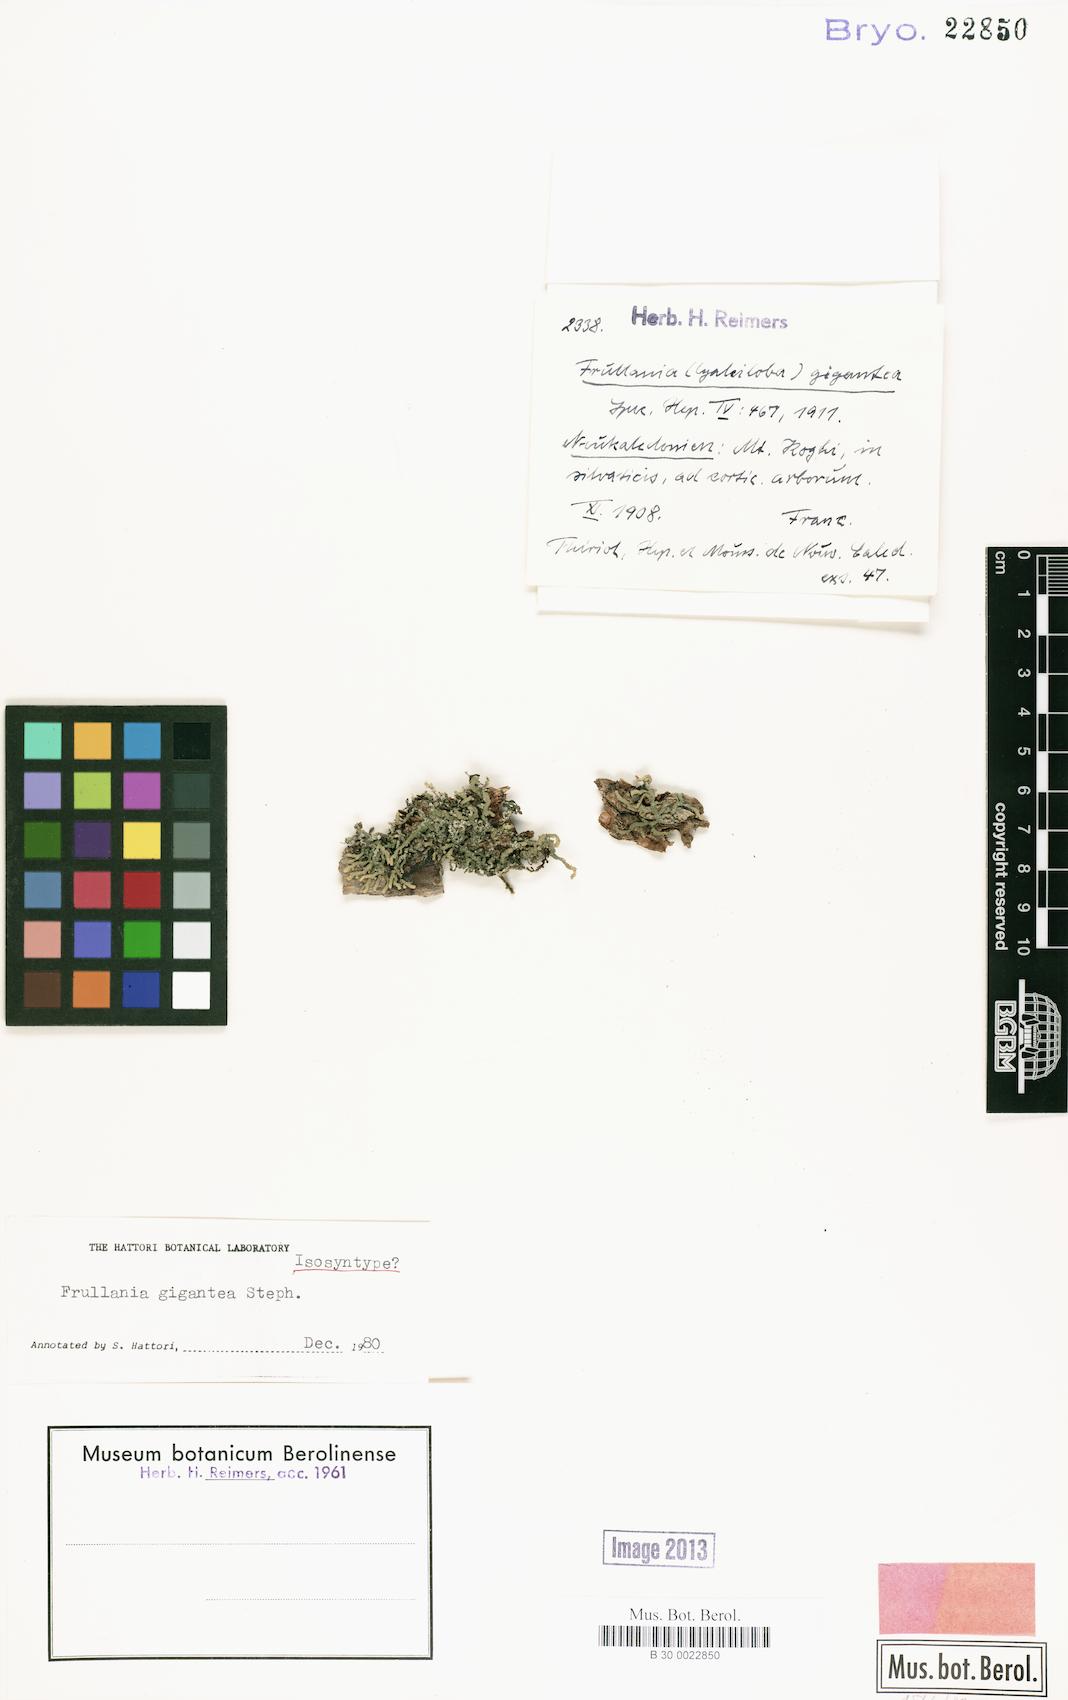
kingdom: Plantae
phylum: Marchantiophyta
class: Jungermanniopsida
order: Porellales
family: Frullaniaceae
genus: Frullania
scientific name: Frullania gigantea
